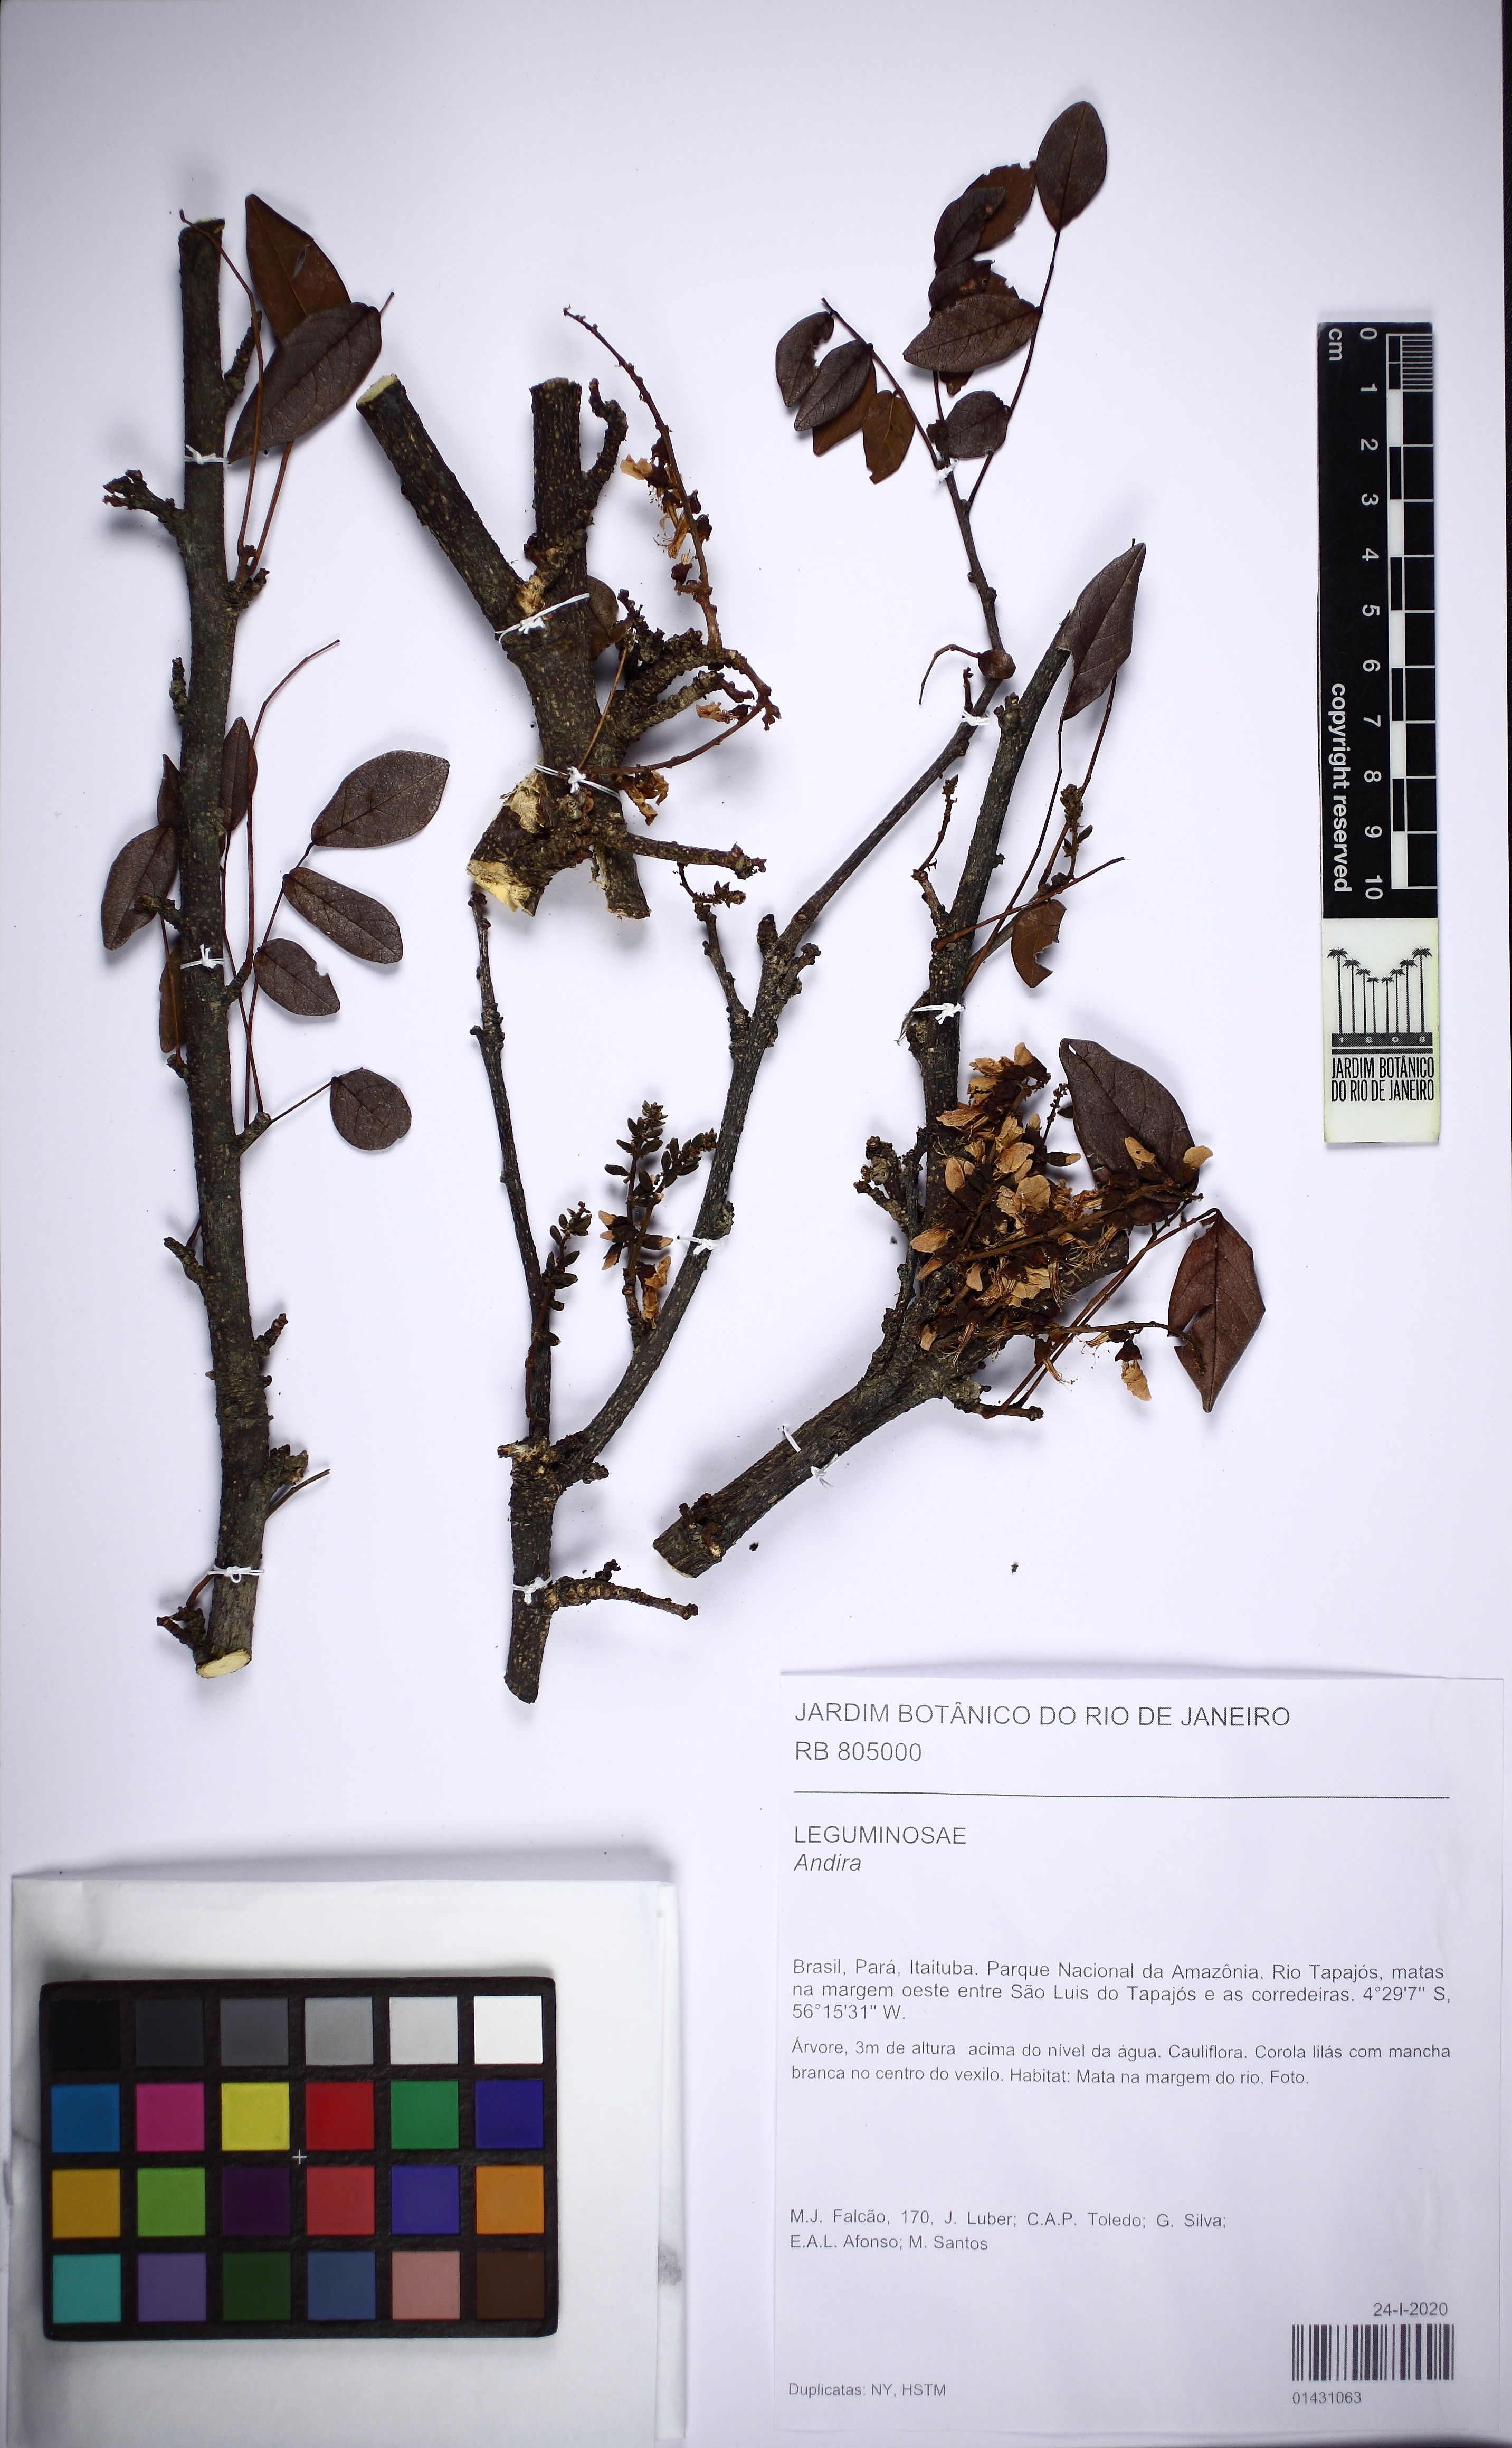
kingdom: Plantae
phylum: Tracheophyta
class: Magnoliopsida
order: Fabales
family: Fabaceae
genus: Andira
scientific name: Andira
